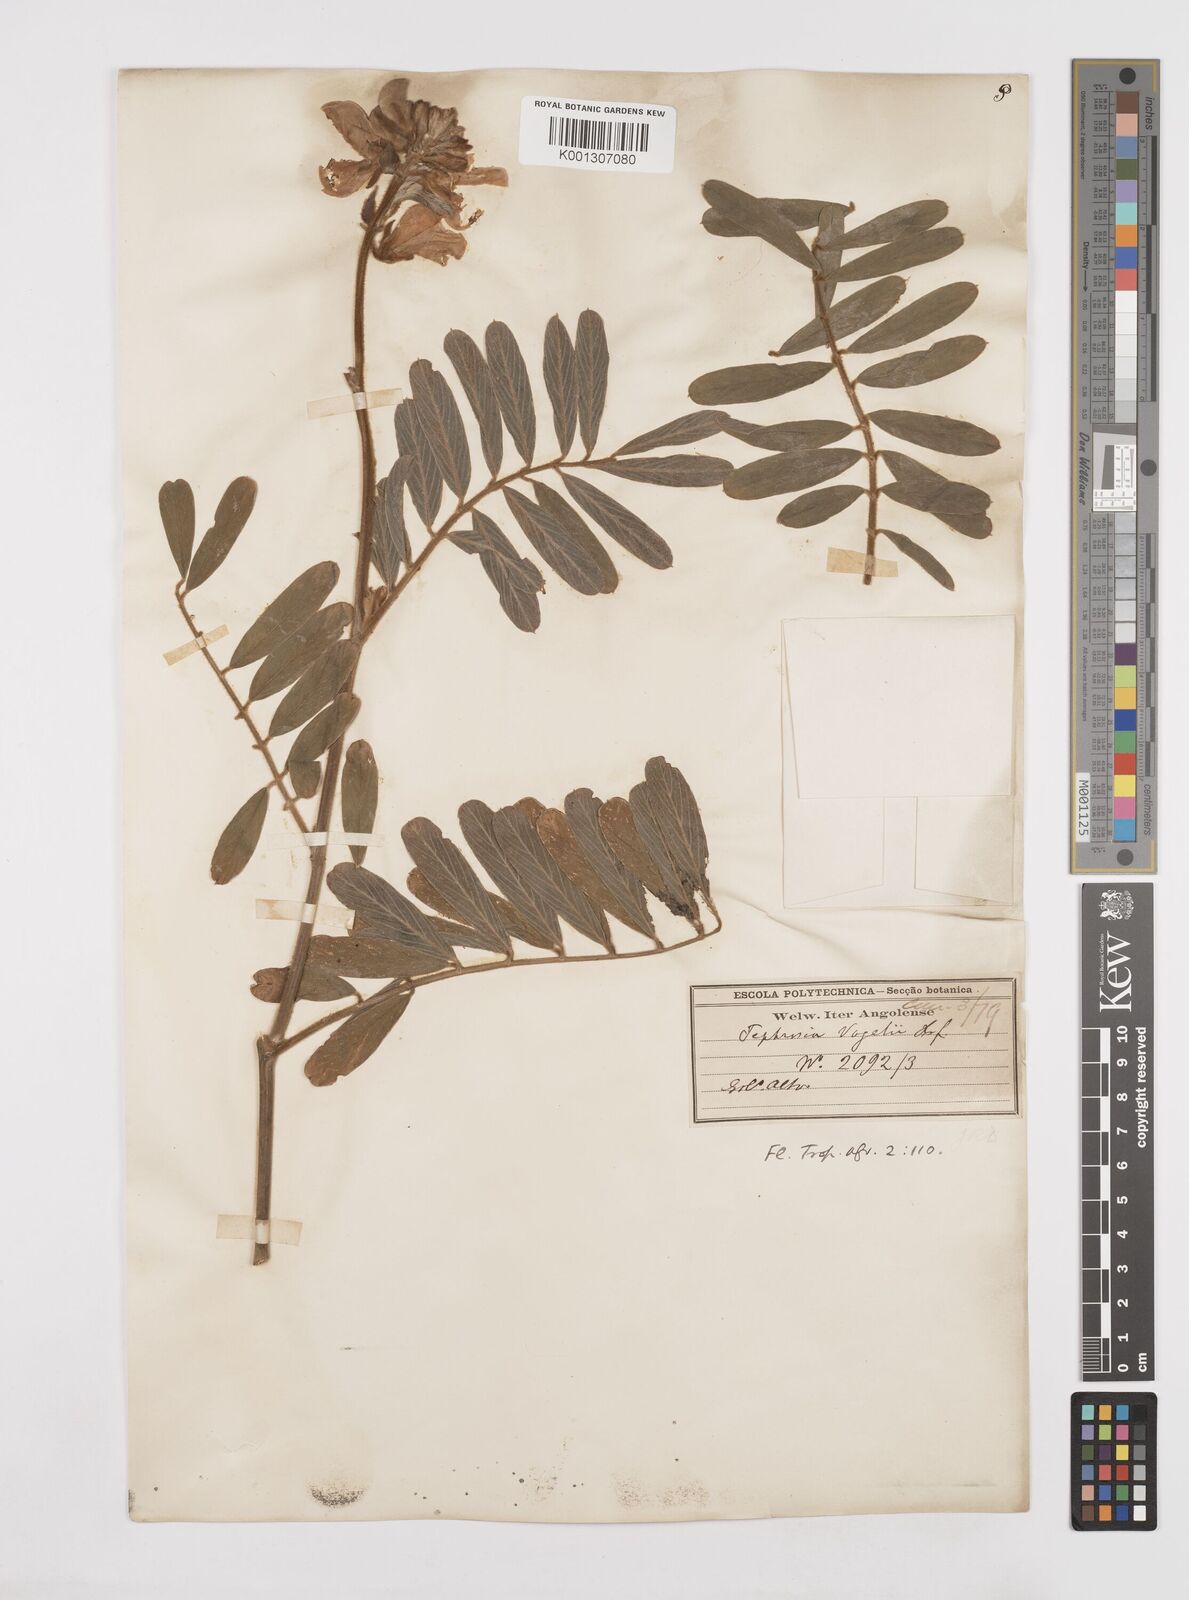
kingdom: Plantae
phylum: Tracheophyta
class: Magnoliopsida
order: Fabales
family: Fabaceae
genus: Tephrosia
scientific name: Tephrosia vogelii
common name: Vogel tephrosia
